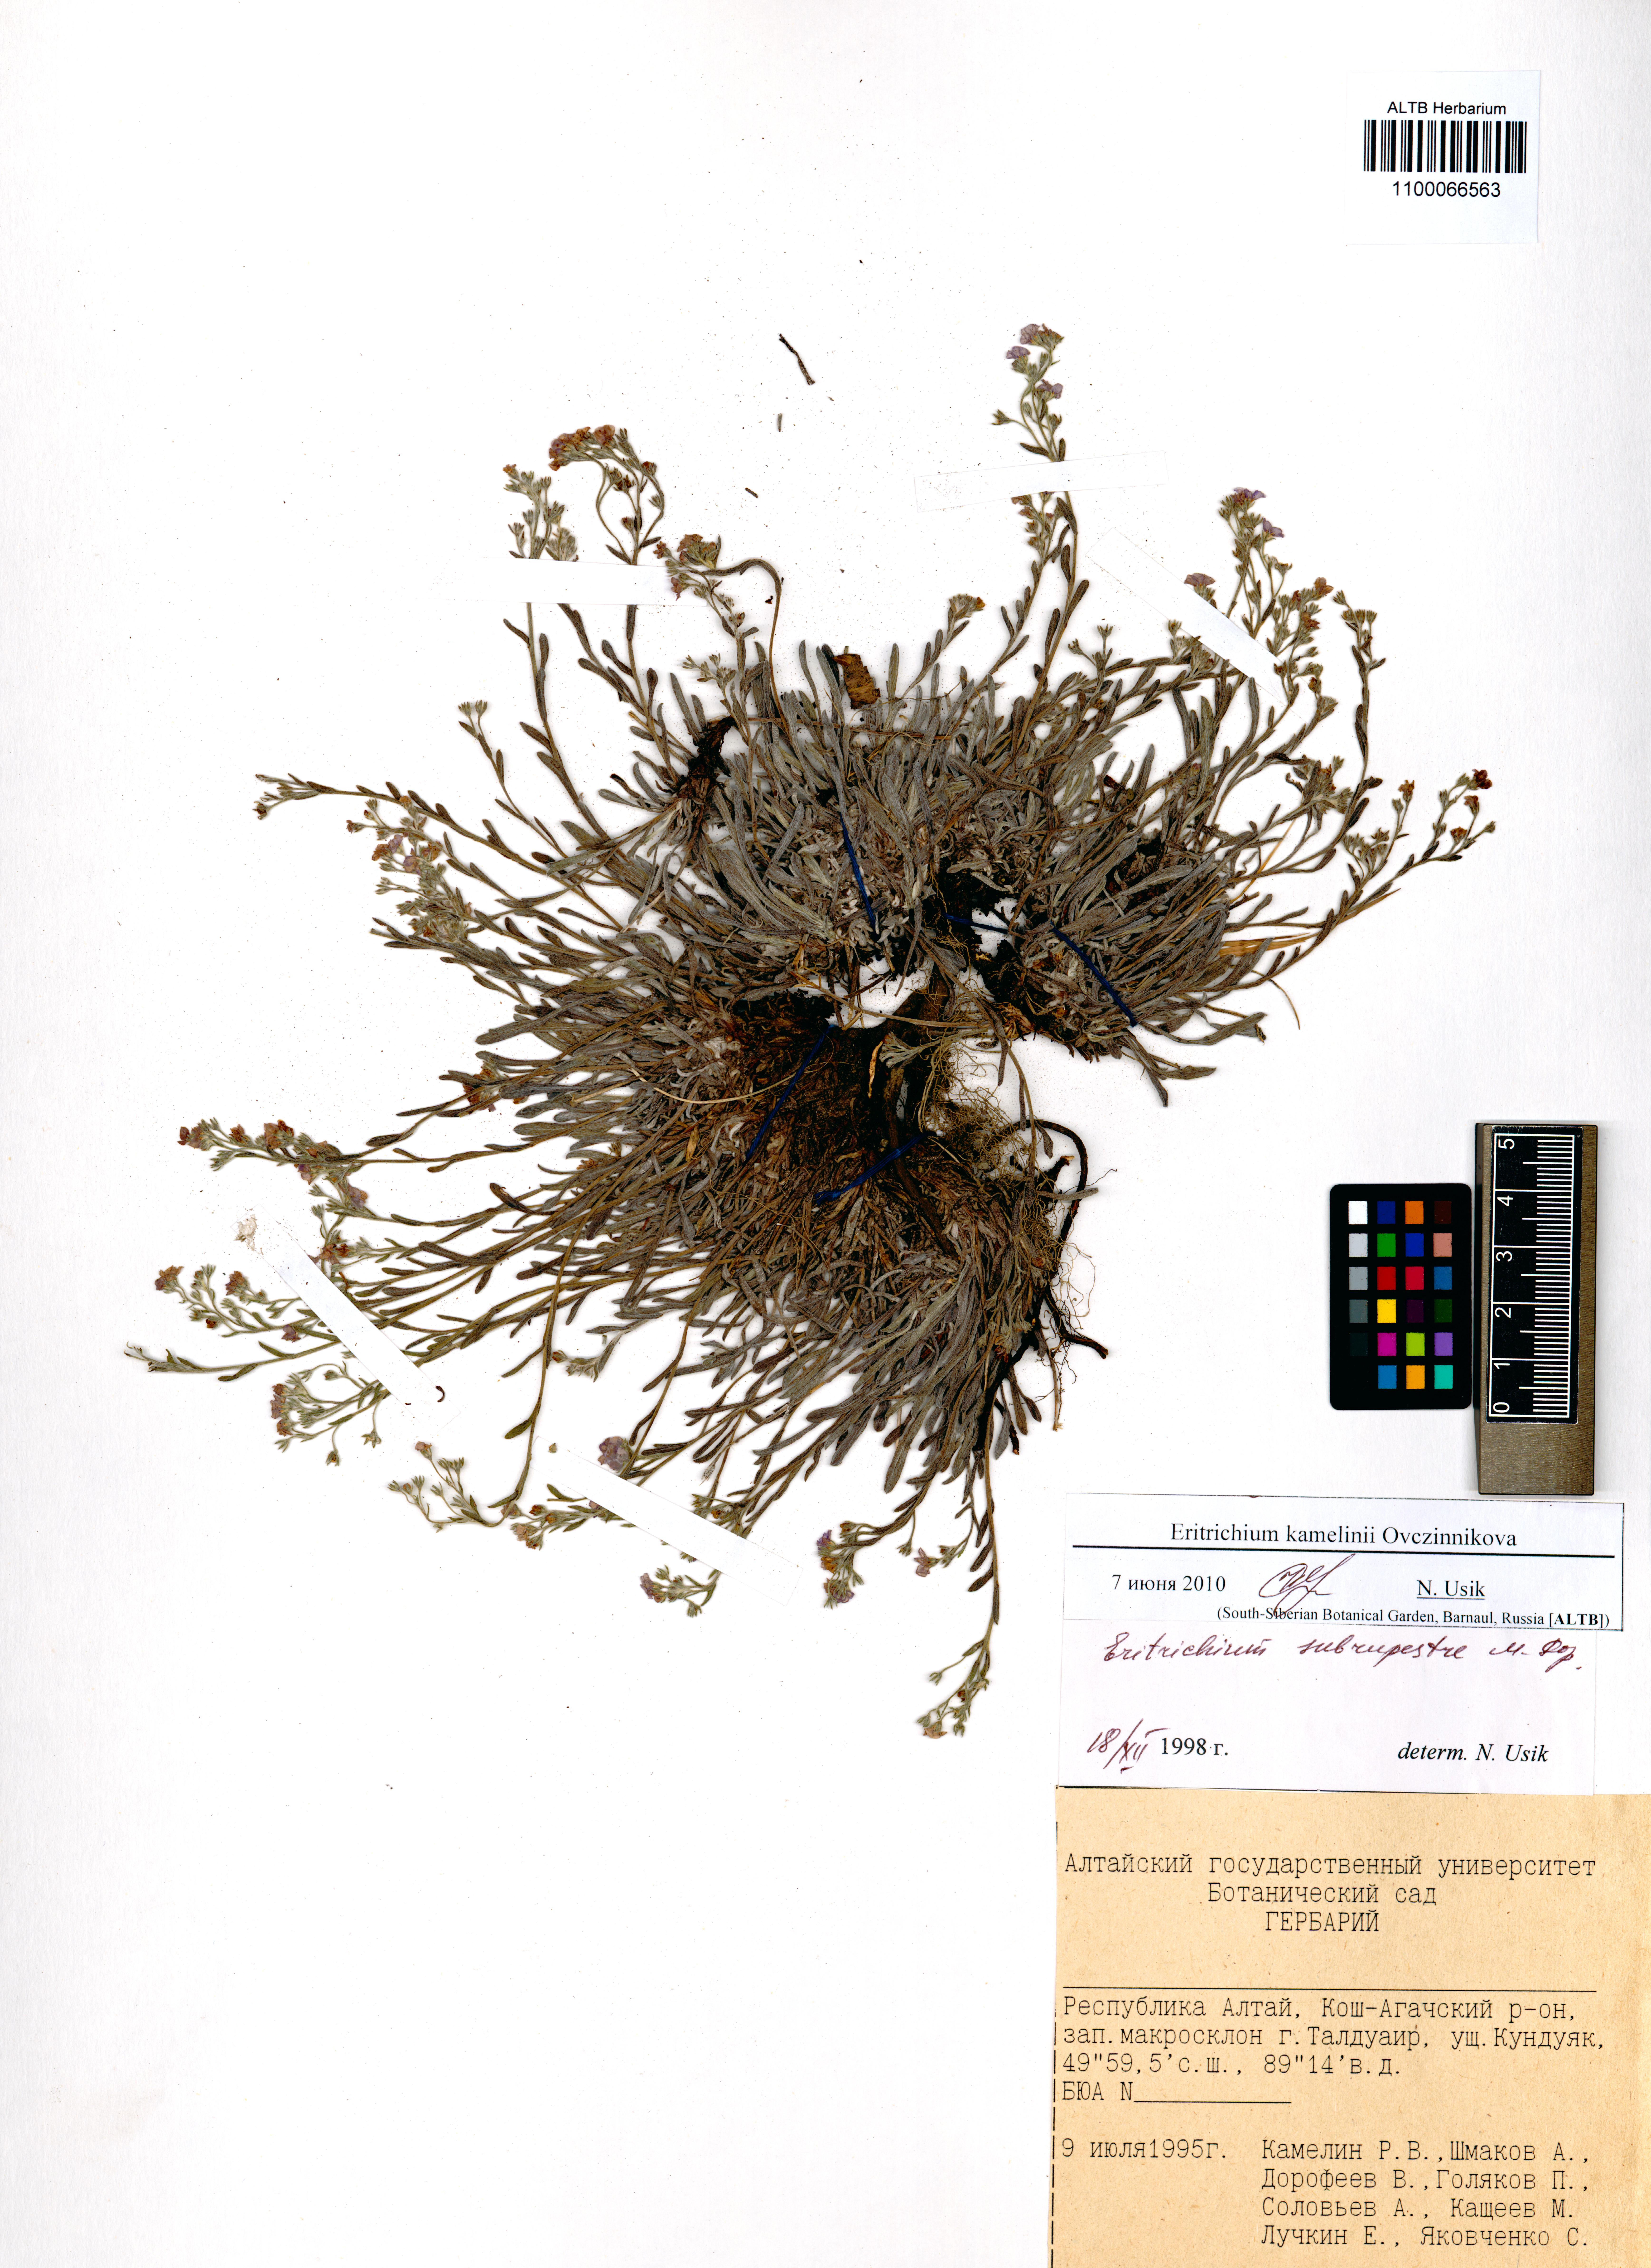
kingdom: Plantae
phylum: Tracheophyta
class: Magnoliopsida
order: Boraginales
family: Boraginaceae
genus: Eritrichium
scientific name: Eritrichium kamelinii
